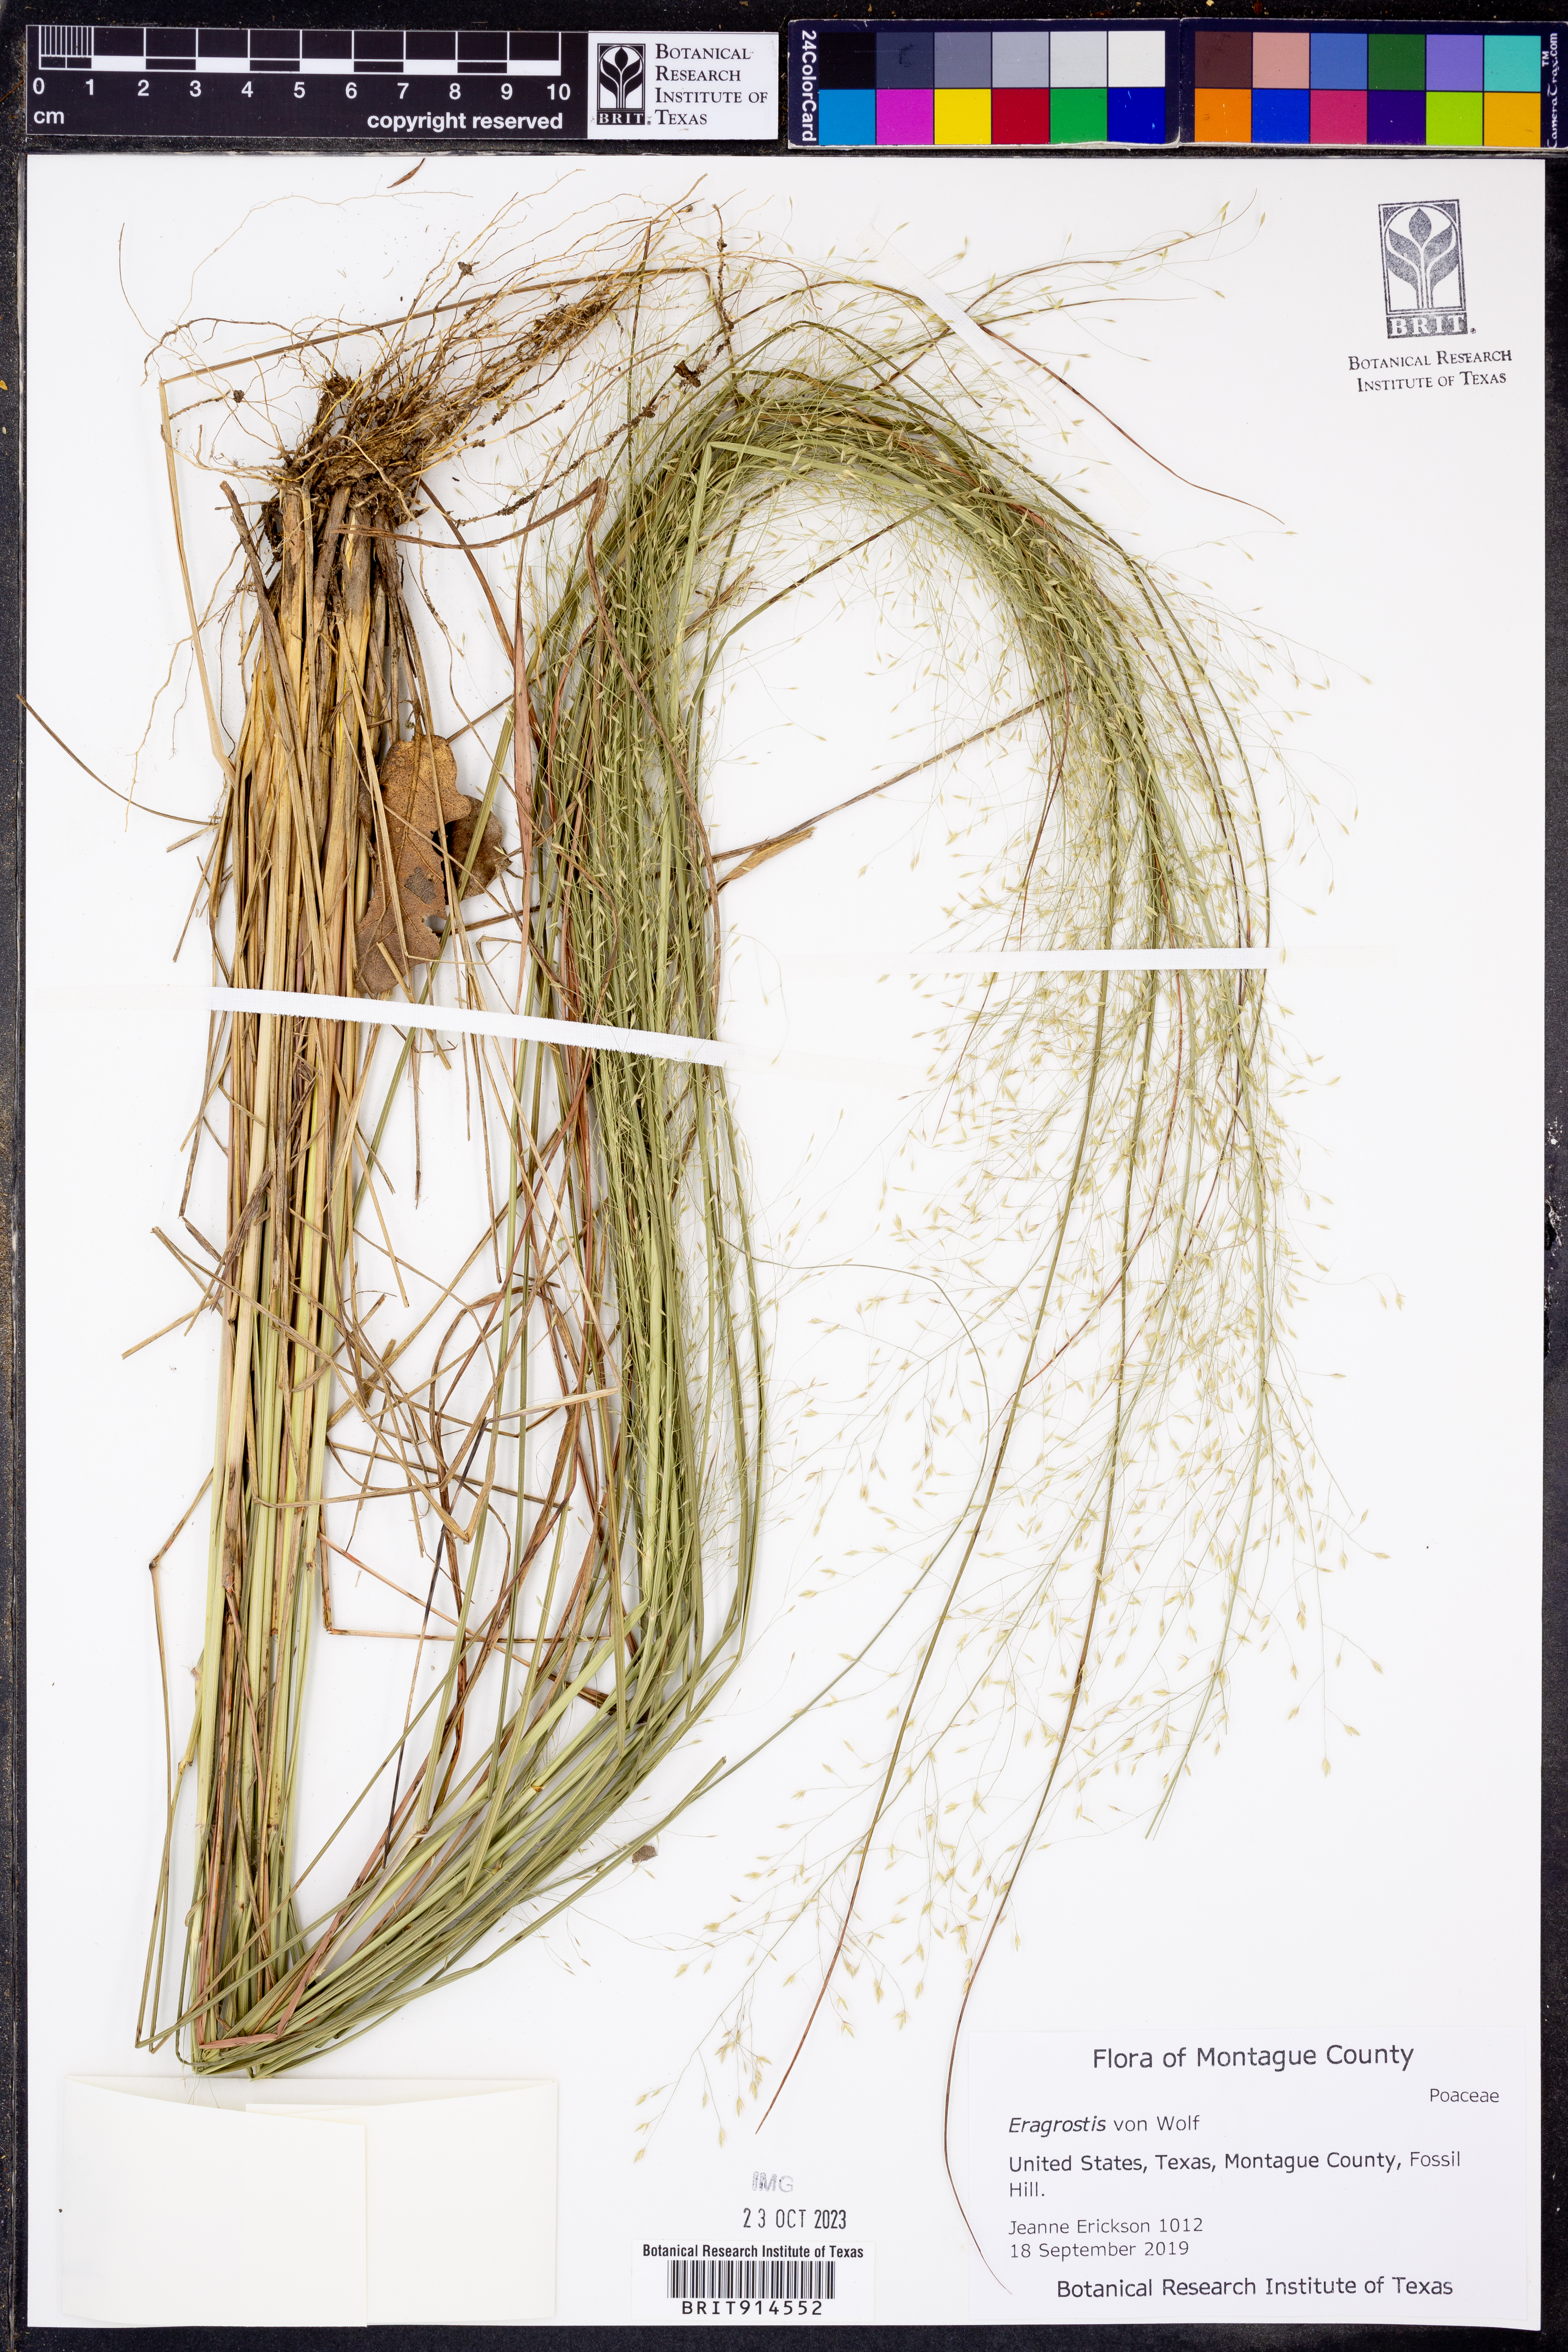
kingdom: Plantae
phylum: Tracheophyta
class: Liliopsida
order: Poales
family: Poaceae
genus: Eragrostis
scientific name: Eragrostis
